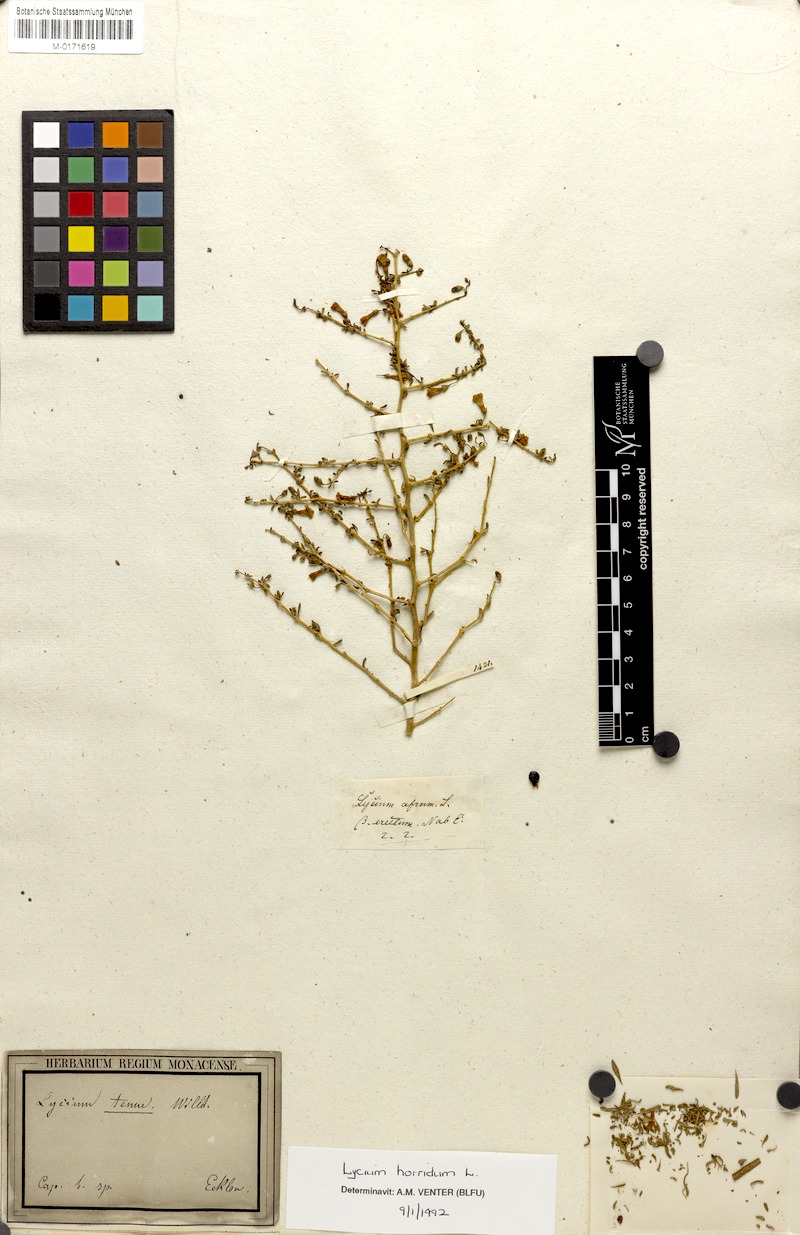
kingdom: Plantae
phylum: Tracheophyta
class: Magnoliopsida
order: Solanales
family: Solanaceae
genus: Lycium
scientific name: Lycium horridum
